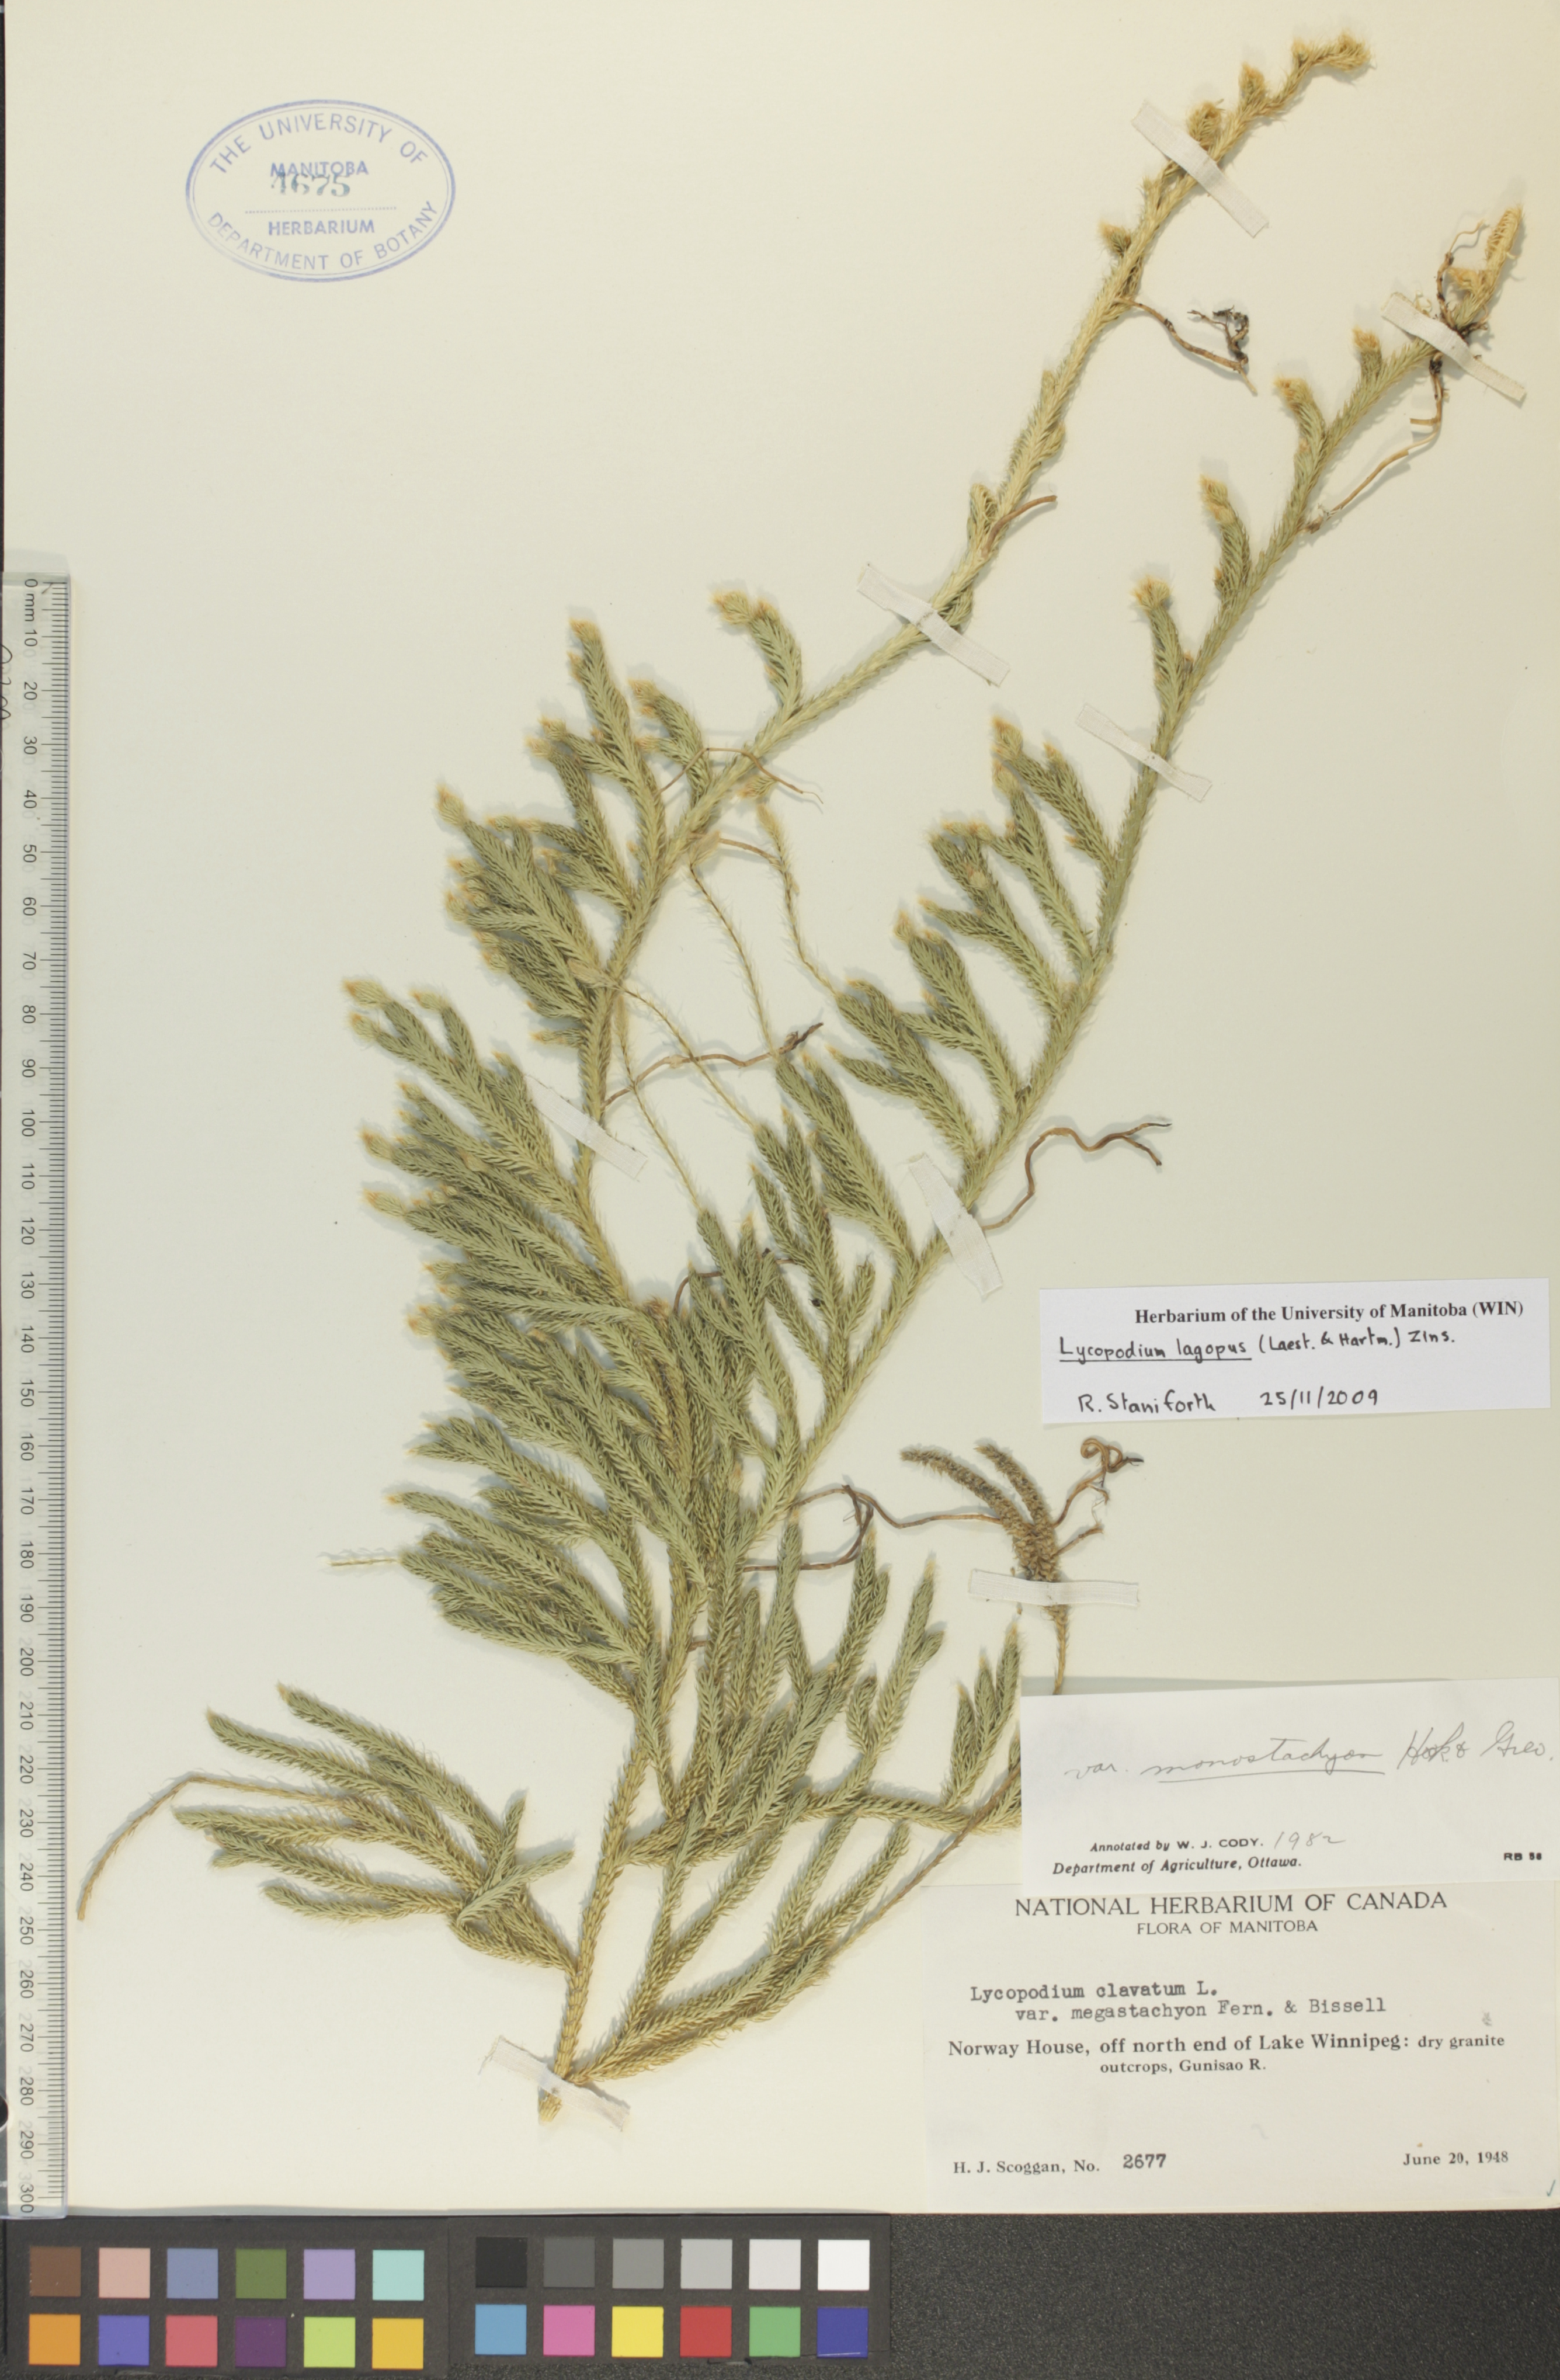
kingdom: Plantae
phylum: Tracheophyta
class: Lycopodiopsida
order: Lycopodiales
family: Lycopodiaceae
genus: Lycopodium
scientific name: Lycopodium lagopus
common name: One-cone clubmoss
